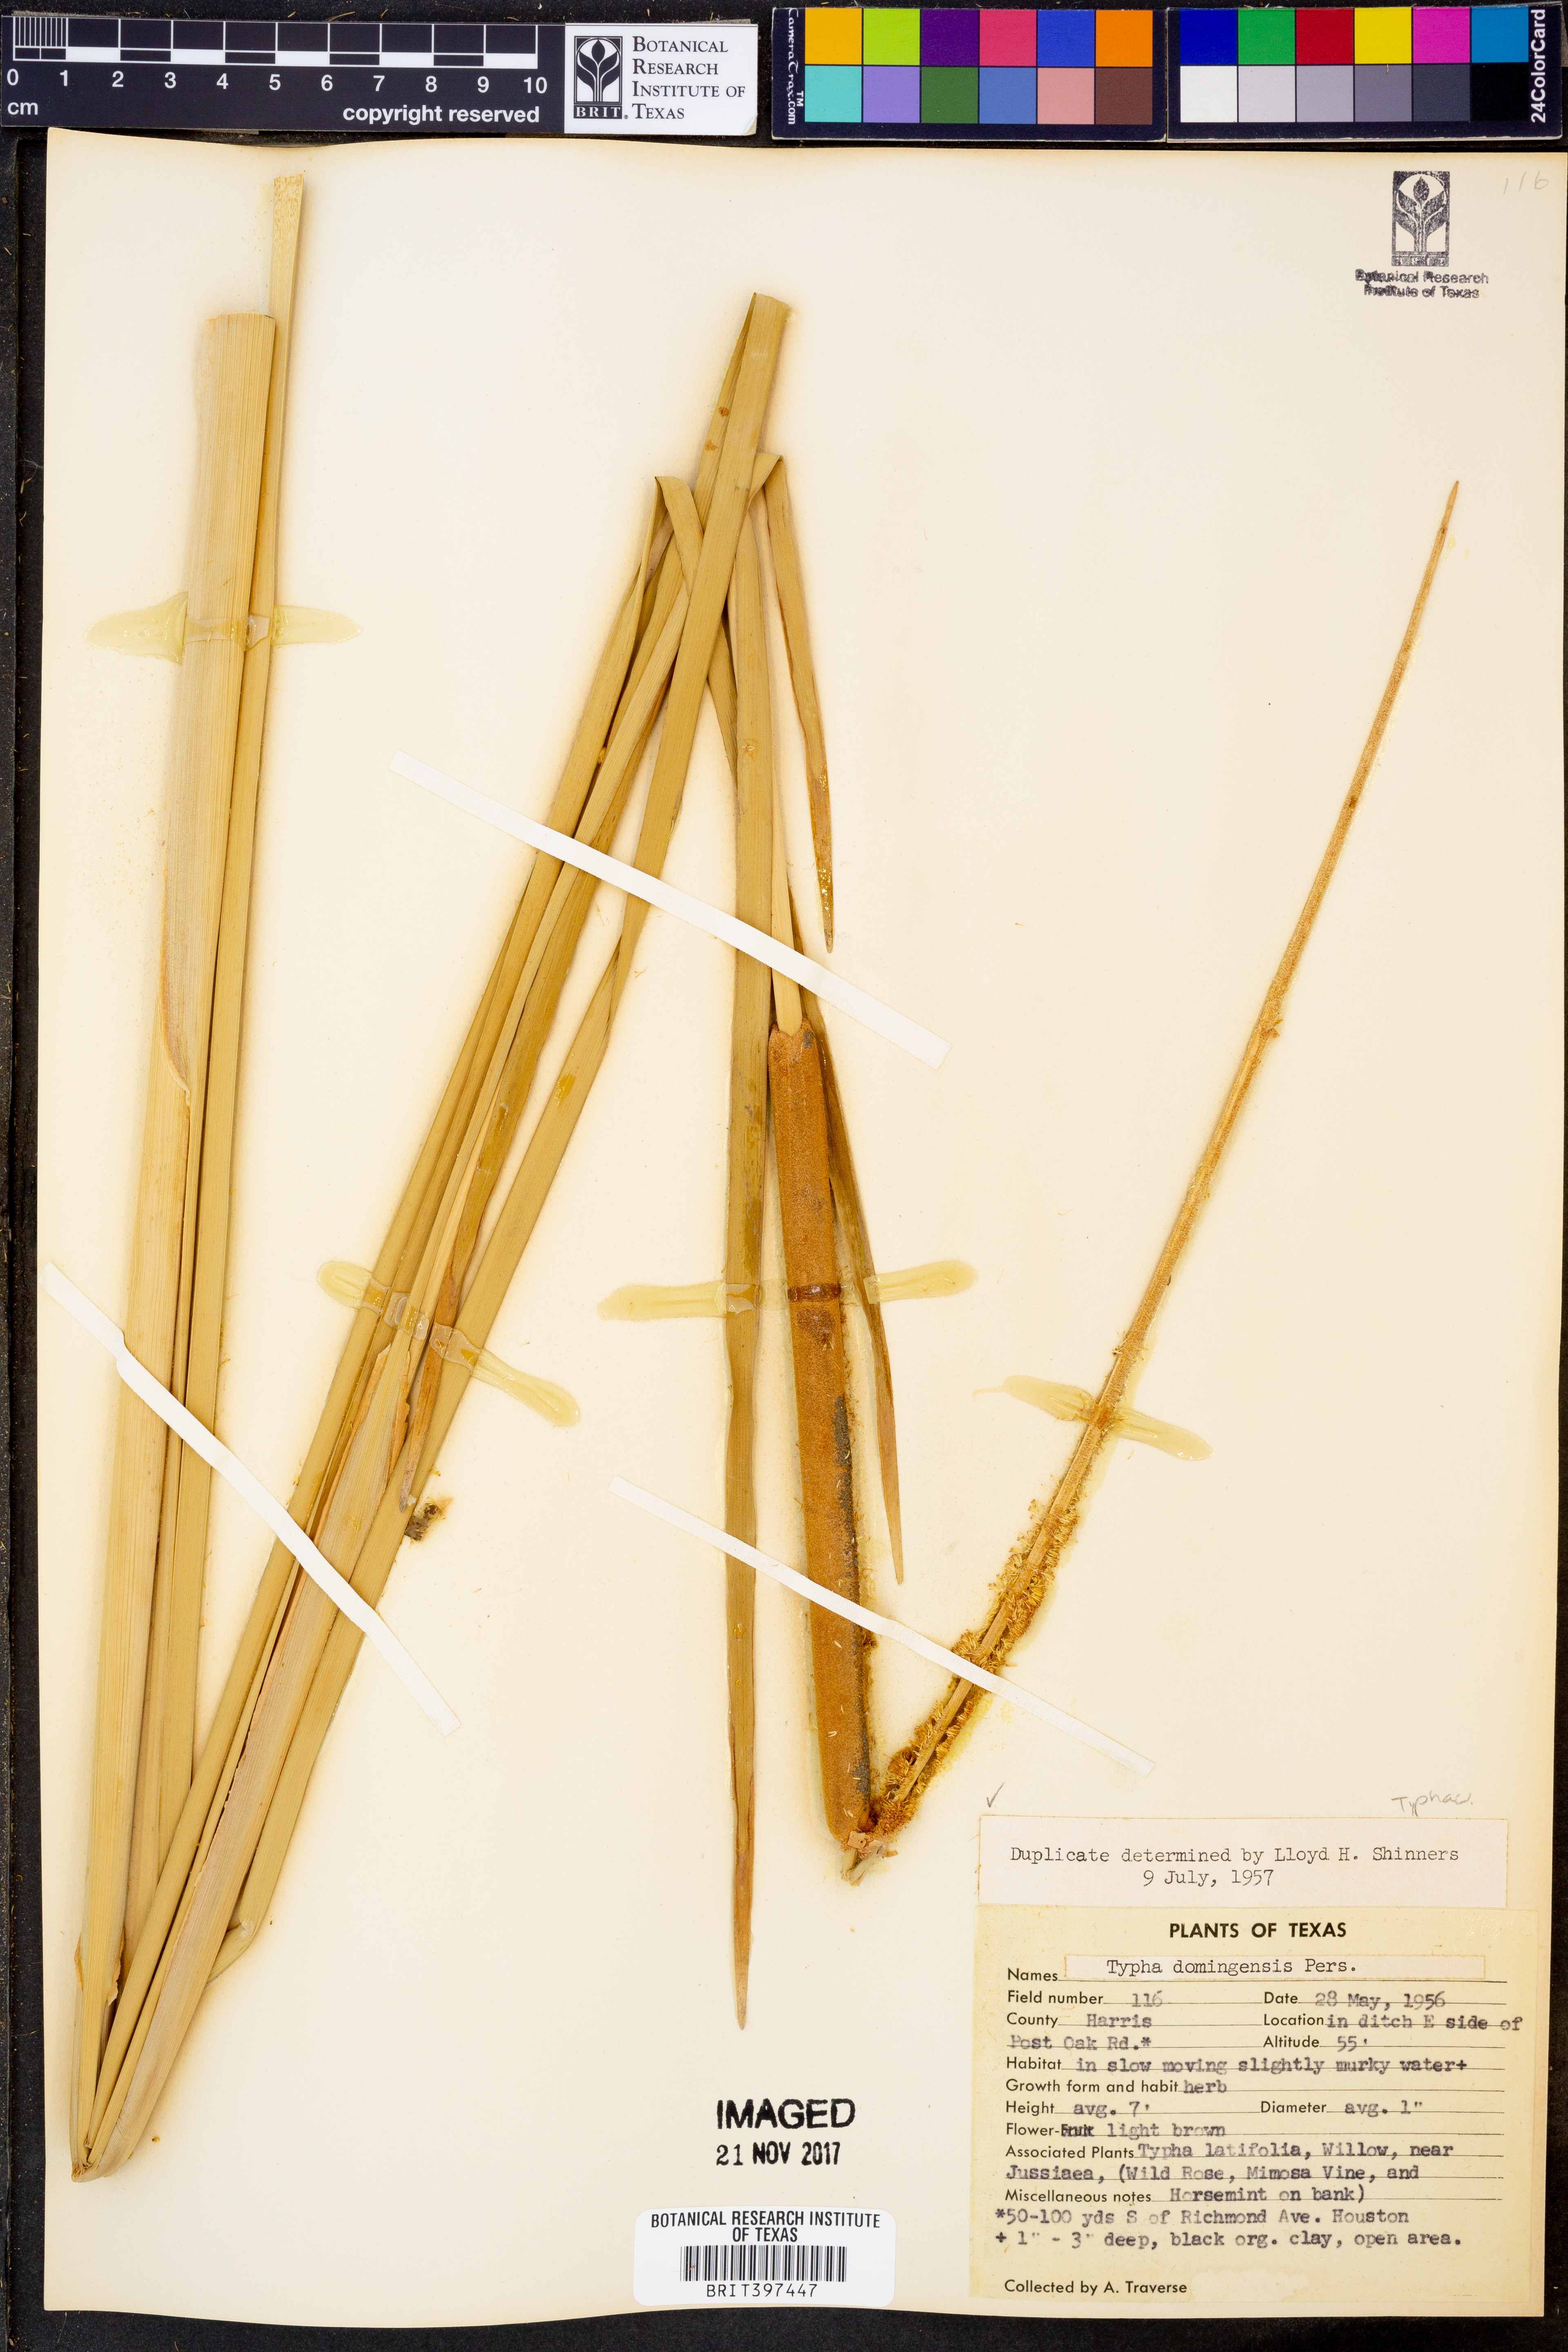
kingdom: Plantae
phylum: Tracheophyta
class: Liliopsida
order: Poales
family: Typhaceae
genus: Typha
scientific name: Typha domingensis
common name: Southern cattail
